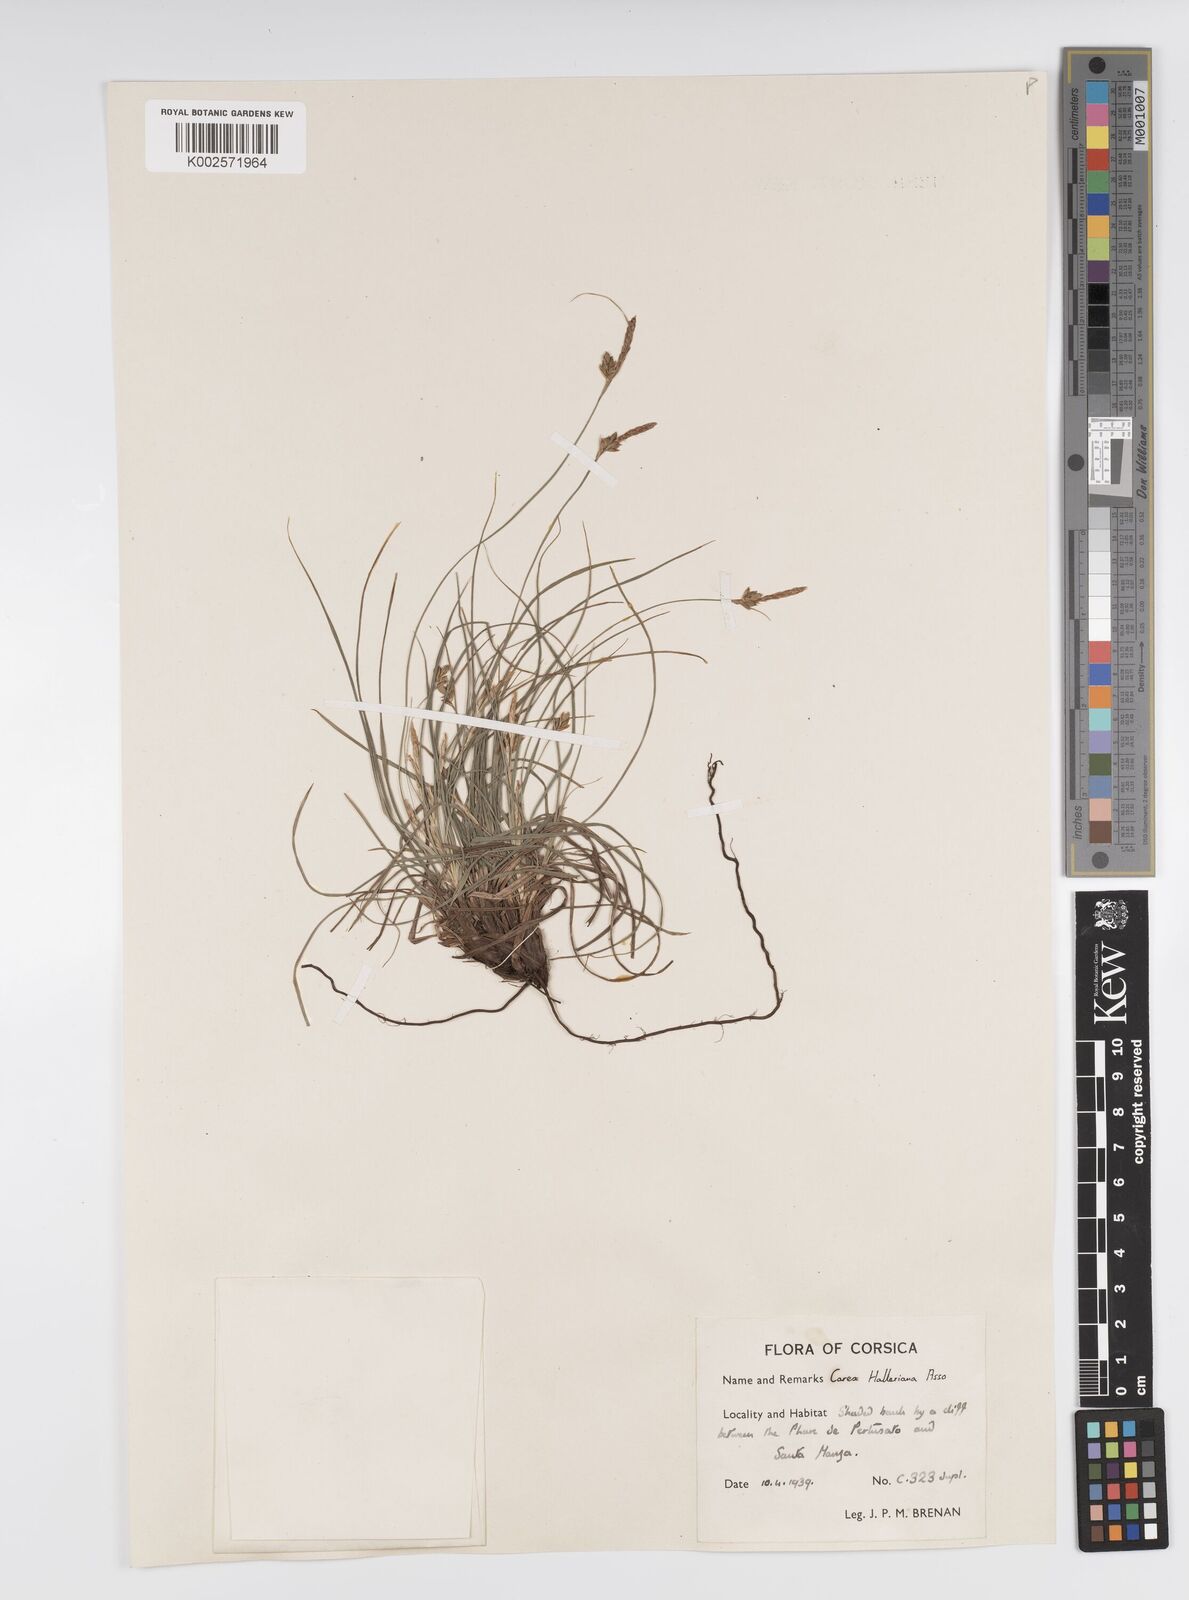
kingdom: Plantae
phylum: Tracheophyta
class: Liliopsida
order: Poales
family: Cyperaceae
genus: Carex
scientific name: Carex halleriana
